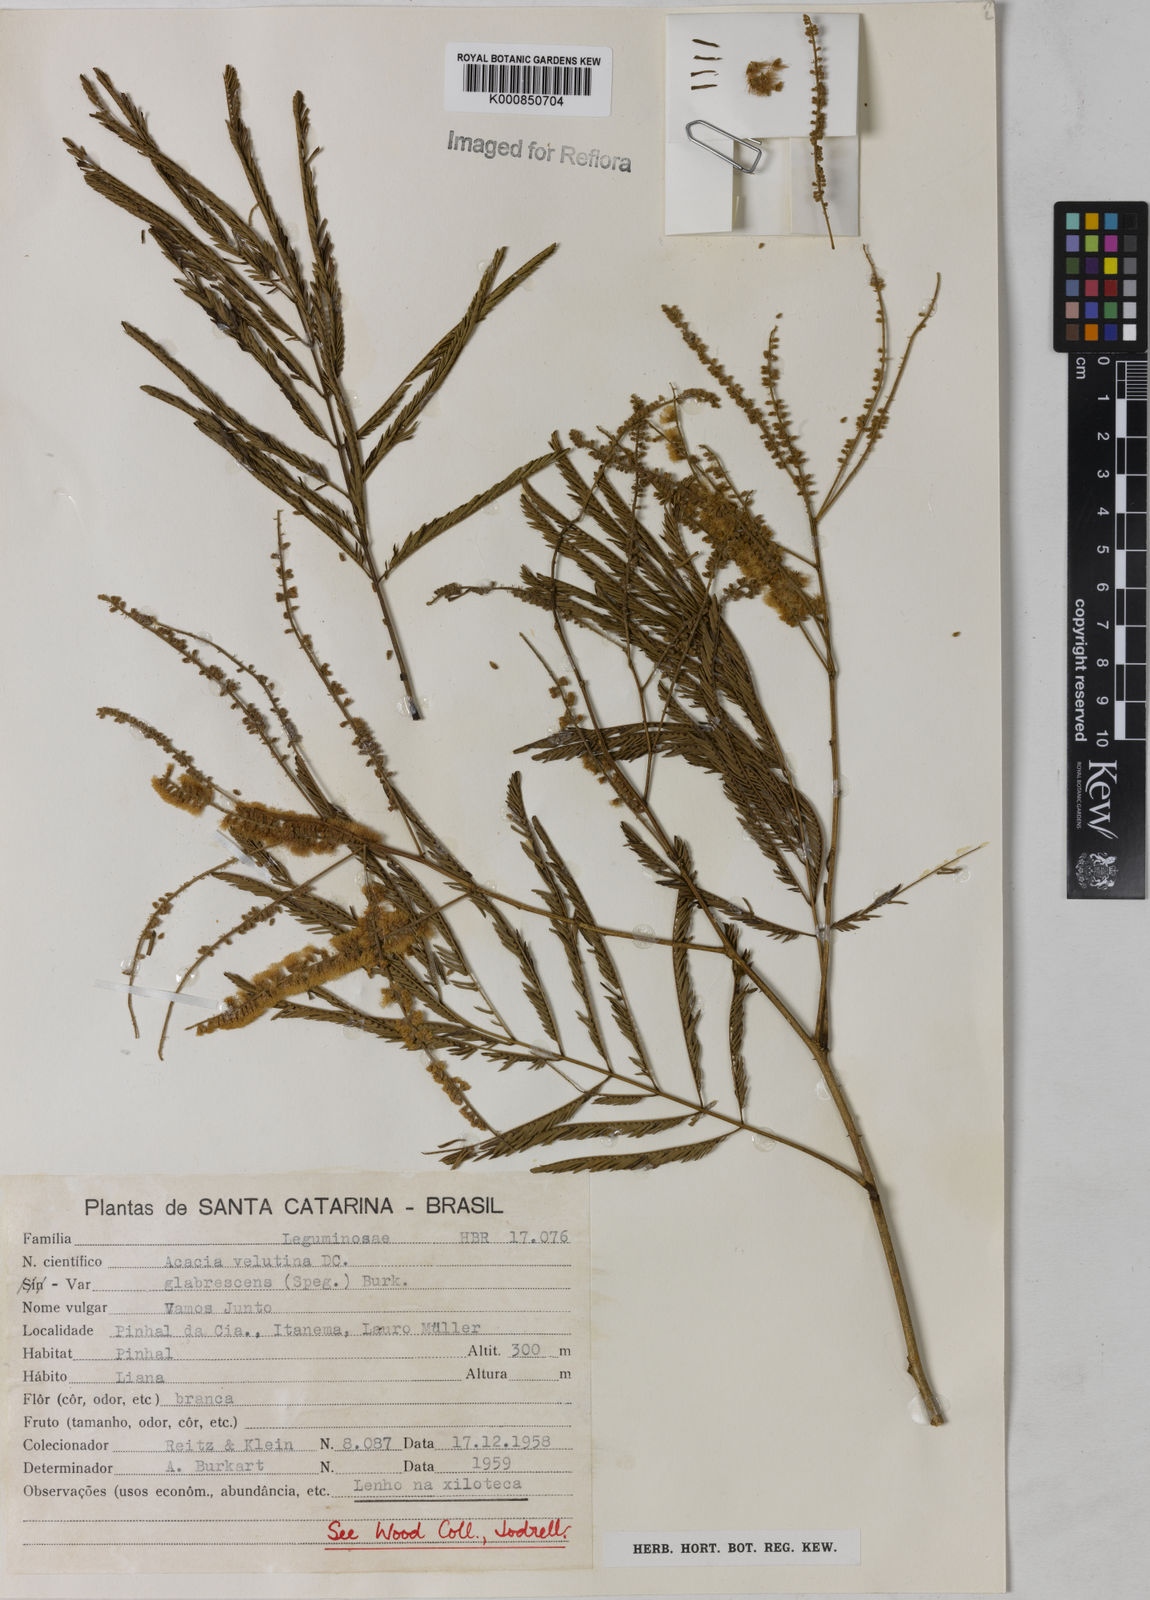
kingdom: Plantae
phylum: Tracheophyta
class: Magnoliopsida
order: Fabales
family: Fabaceae
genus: Senegalia
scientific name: Senegalia velutina
